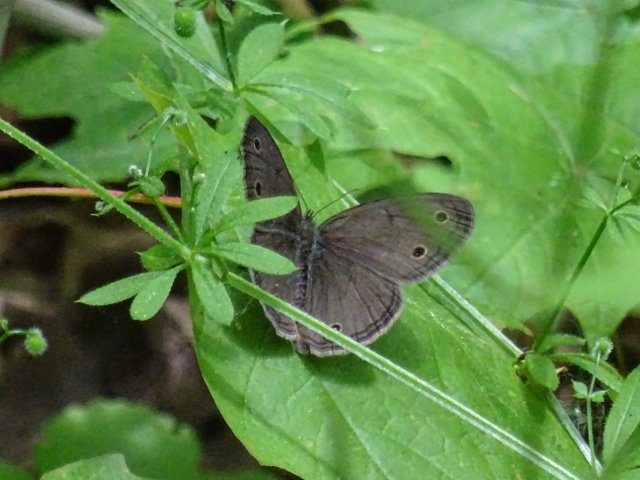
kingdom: Animalia
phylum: Arthropoda
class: Insecta
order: Lepidoptera
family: Nymphalidae
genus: Euptychia
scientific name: Euptychia cymela
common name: Little Wood Satyr
